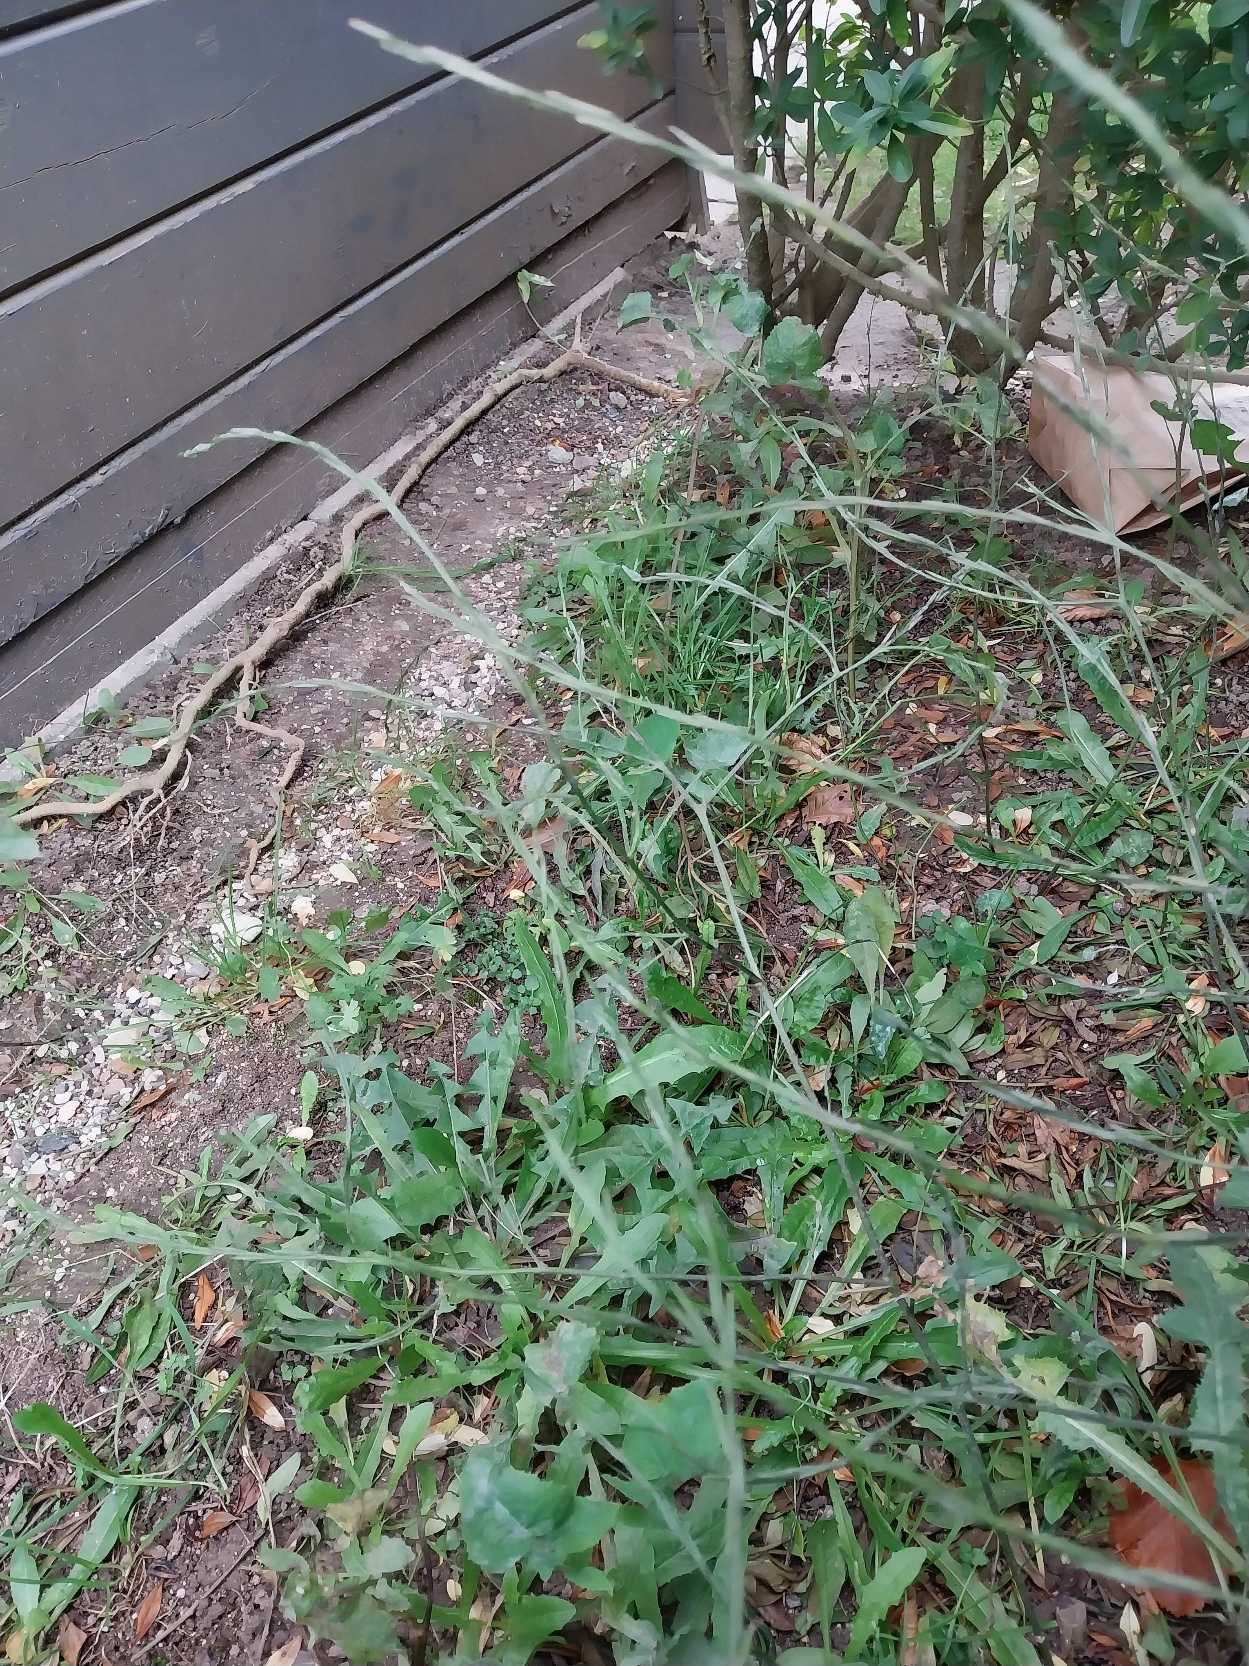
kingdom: Plantae
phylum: Tracheophyta
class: Magnoliopsida
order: Brassicales
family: Brassicaceae
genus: Sisymbrium
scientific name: Sisymbrium officinale
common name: Rank vejsennep
